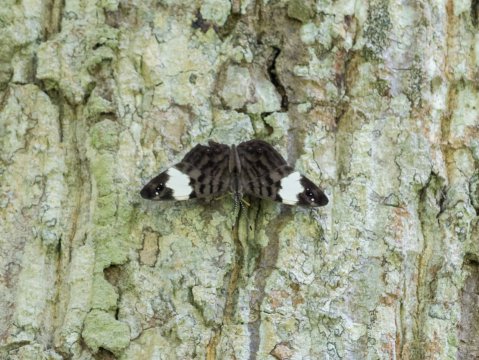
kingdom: Animalia
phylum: Arthropoda
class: Insecta
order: Lepidoptera
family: Nymphalidae
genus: Ectima
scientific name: Ectima thecla
